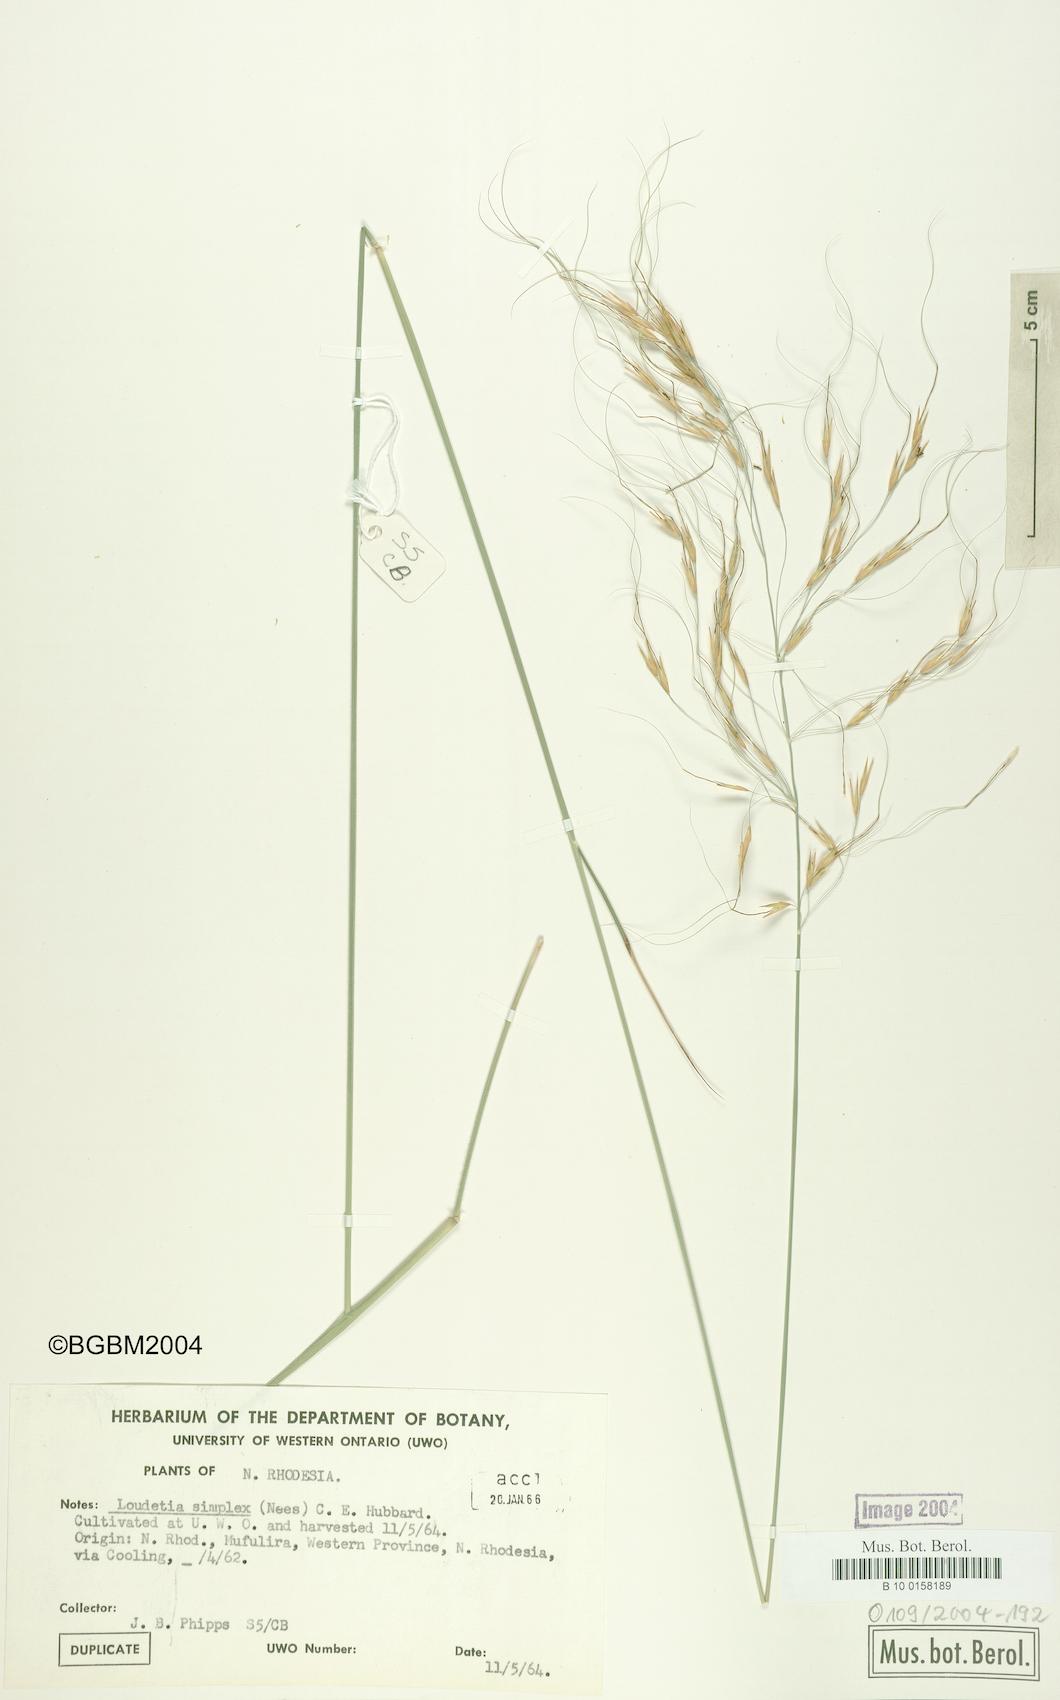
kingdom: Plantae
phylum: Tracheophyta
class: Liliopsida
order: Poales
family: Poaceae
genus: Loudetia
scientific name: Loudetia simplex
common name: Common russet grass
